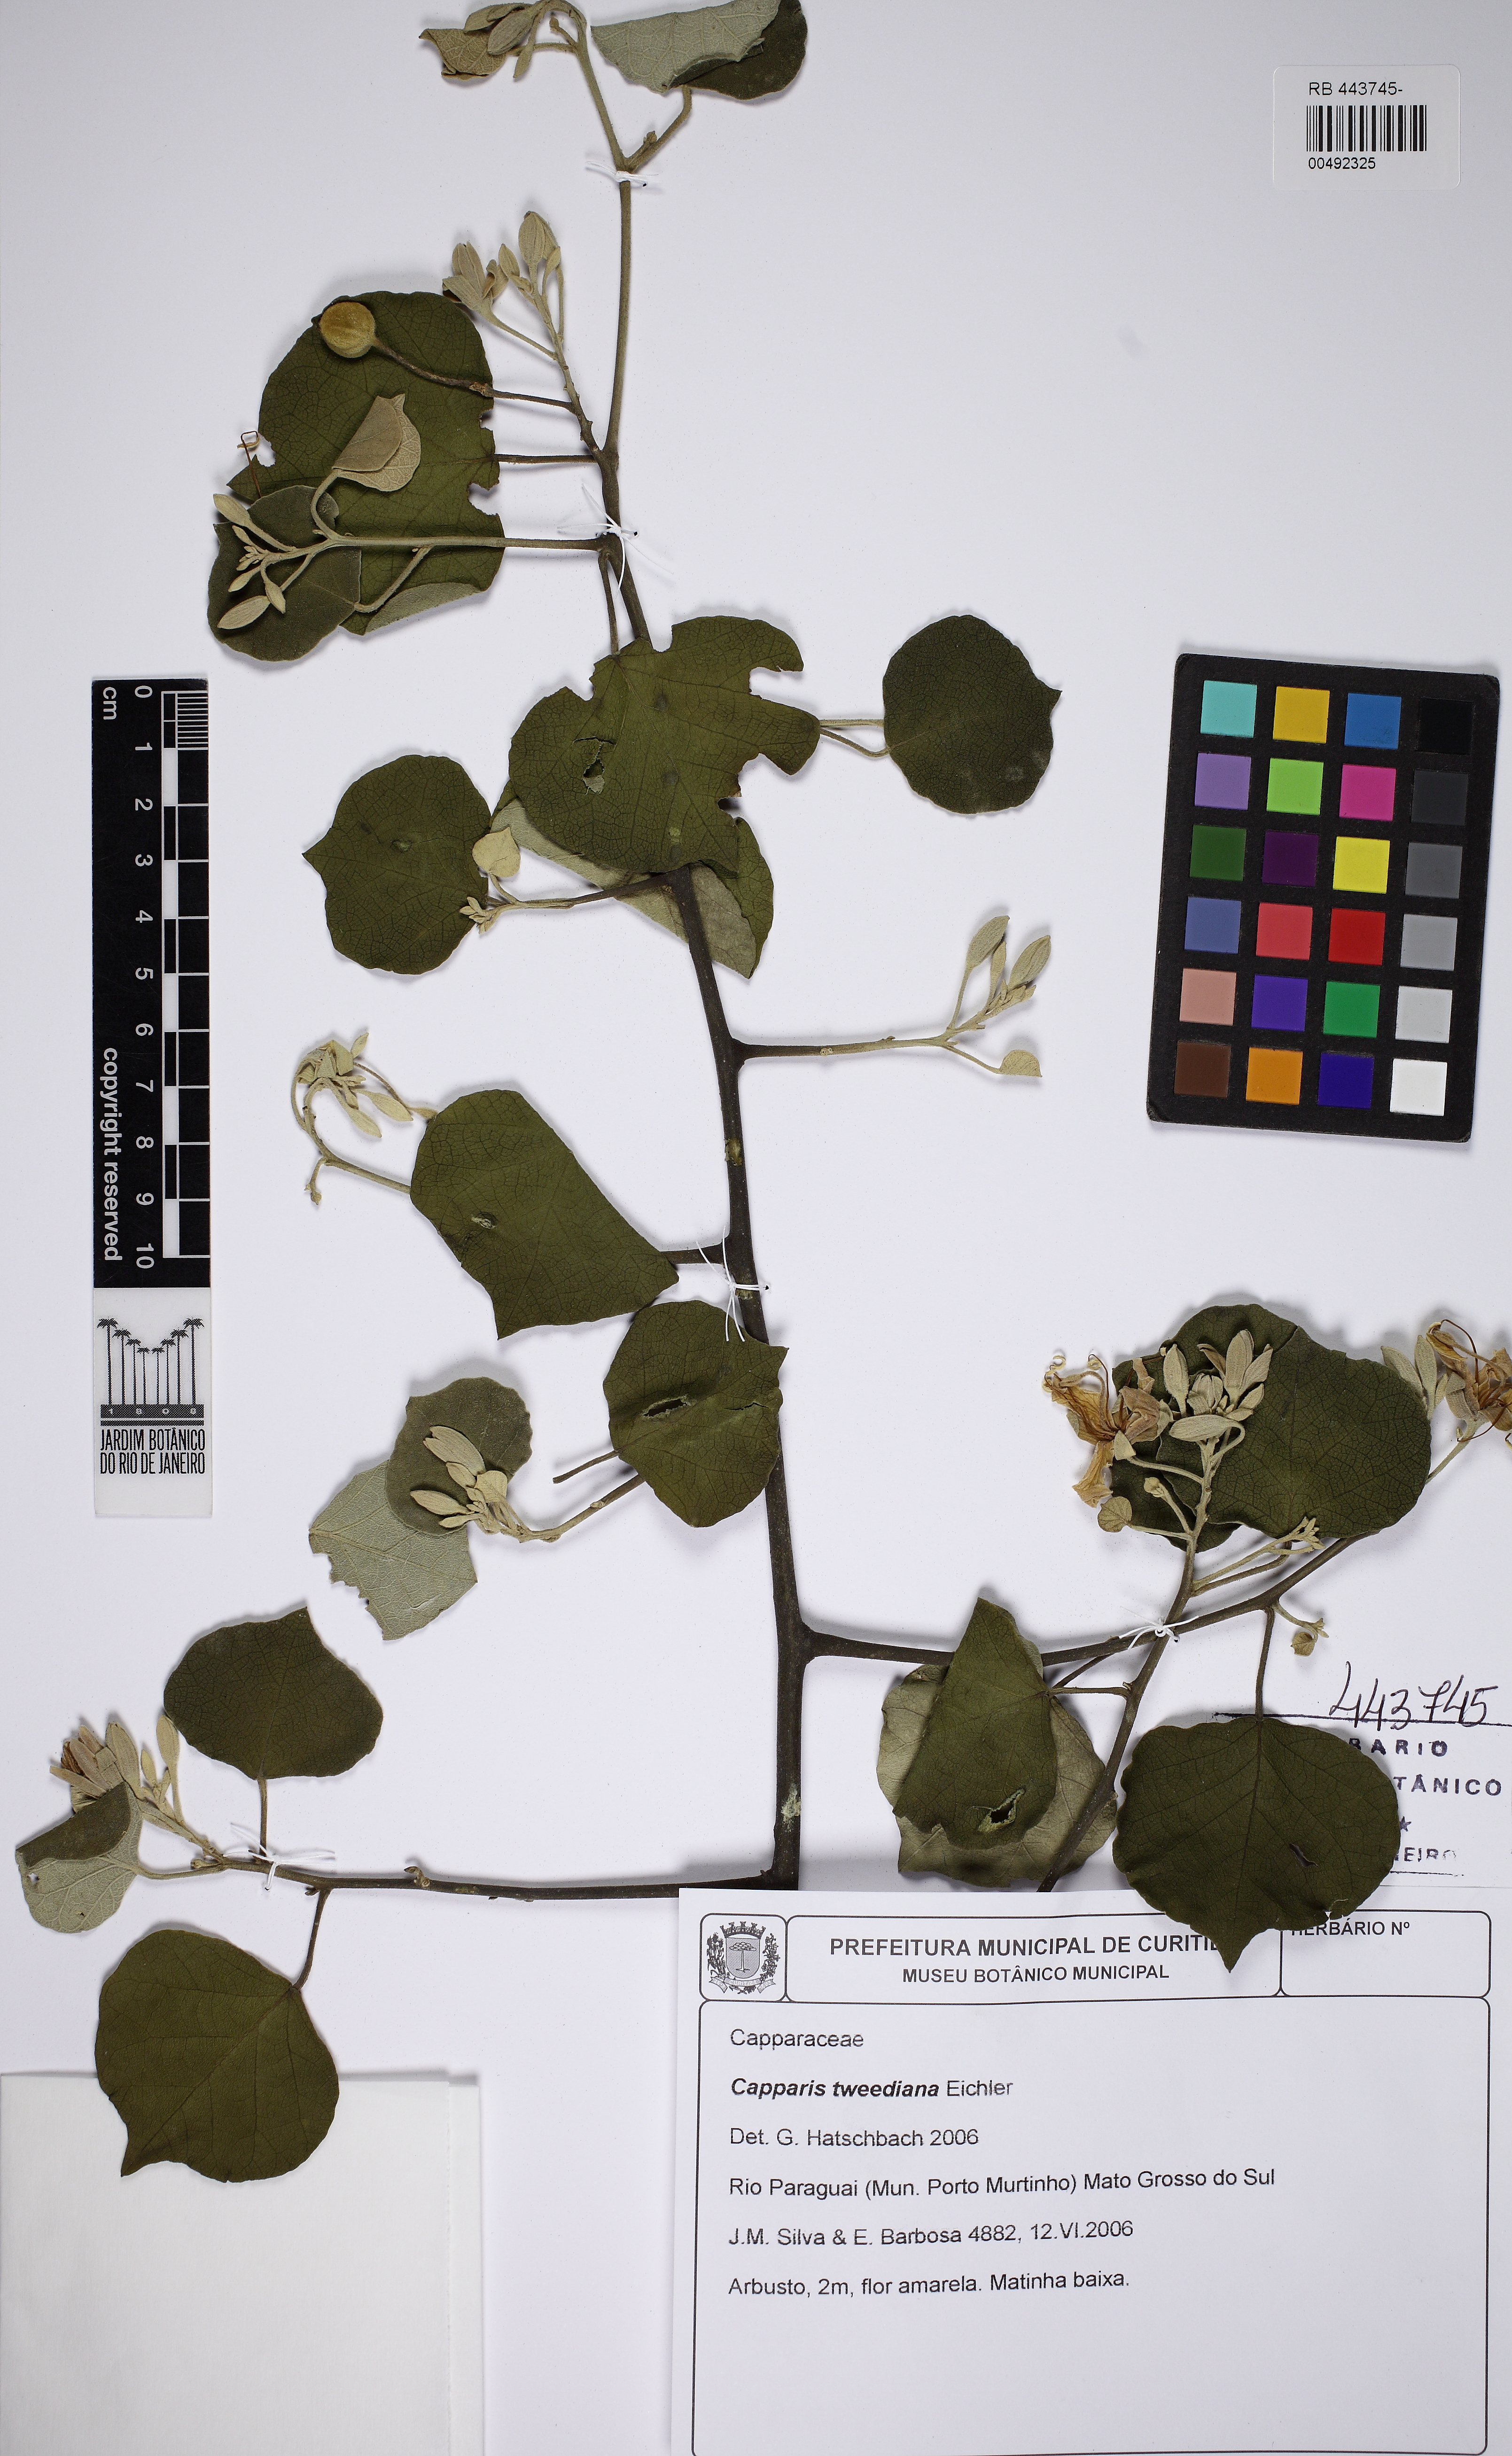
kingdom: Plantae
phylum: Tracheophyta
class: Magnoliopsida
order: Brassicales
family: Capparaceae
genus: Capparicordis
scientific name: Capparicordis tweediana
